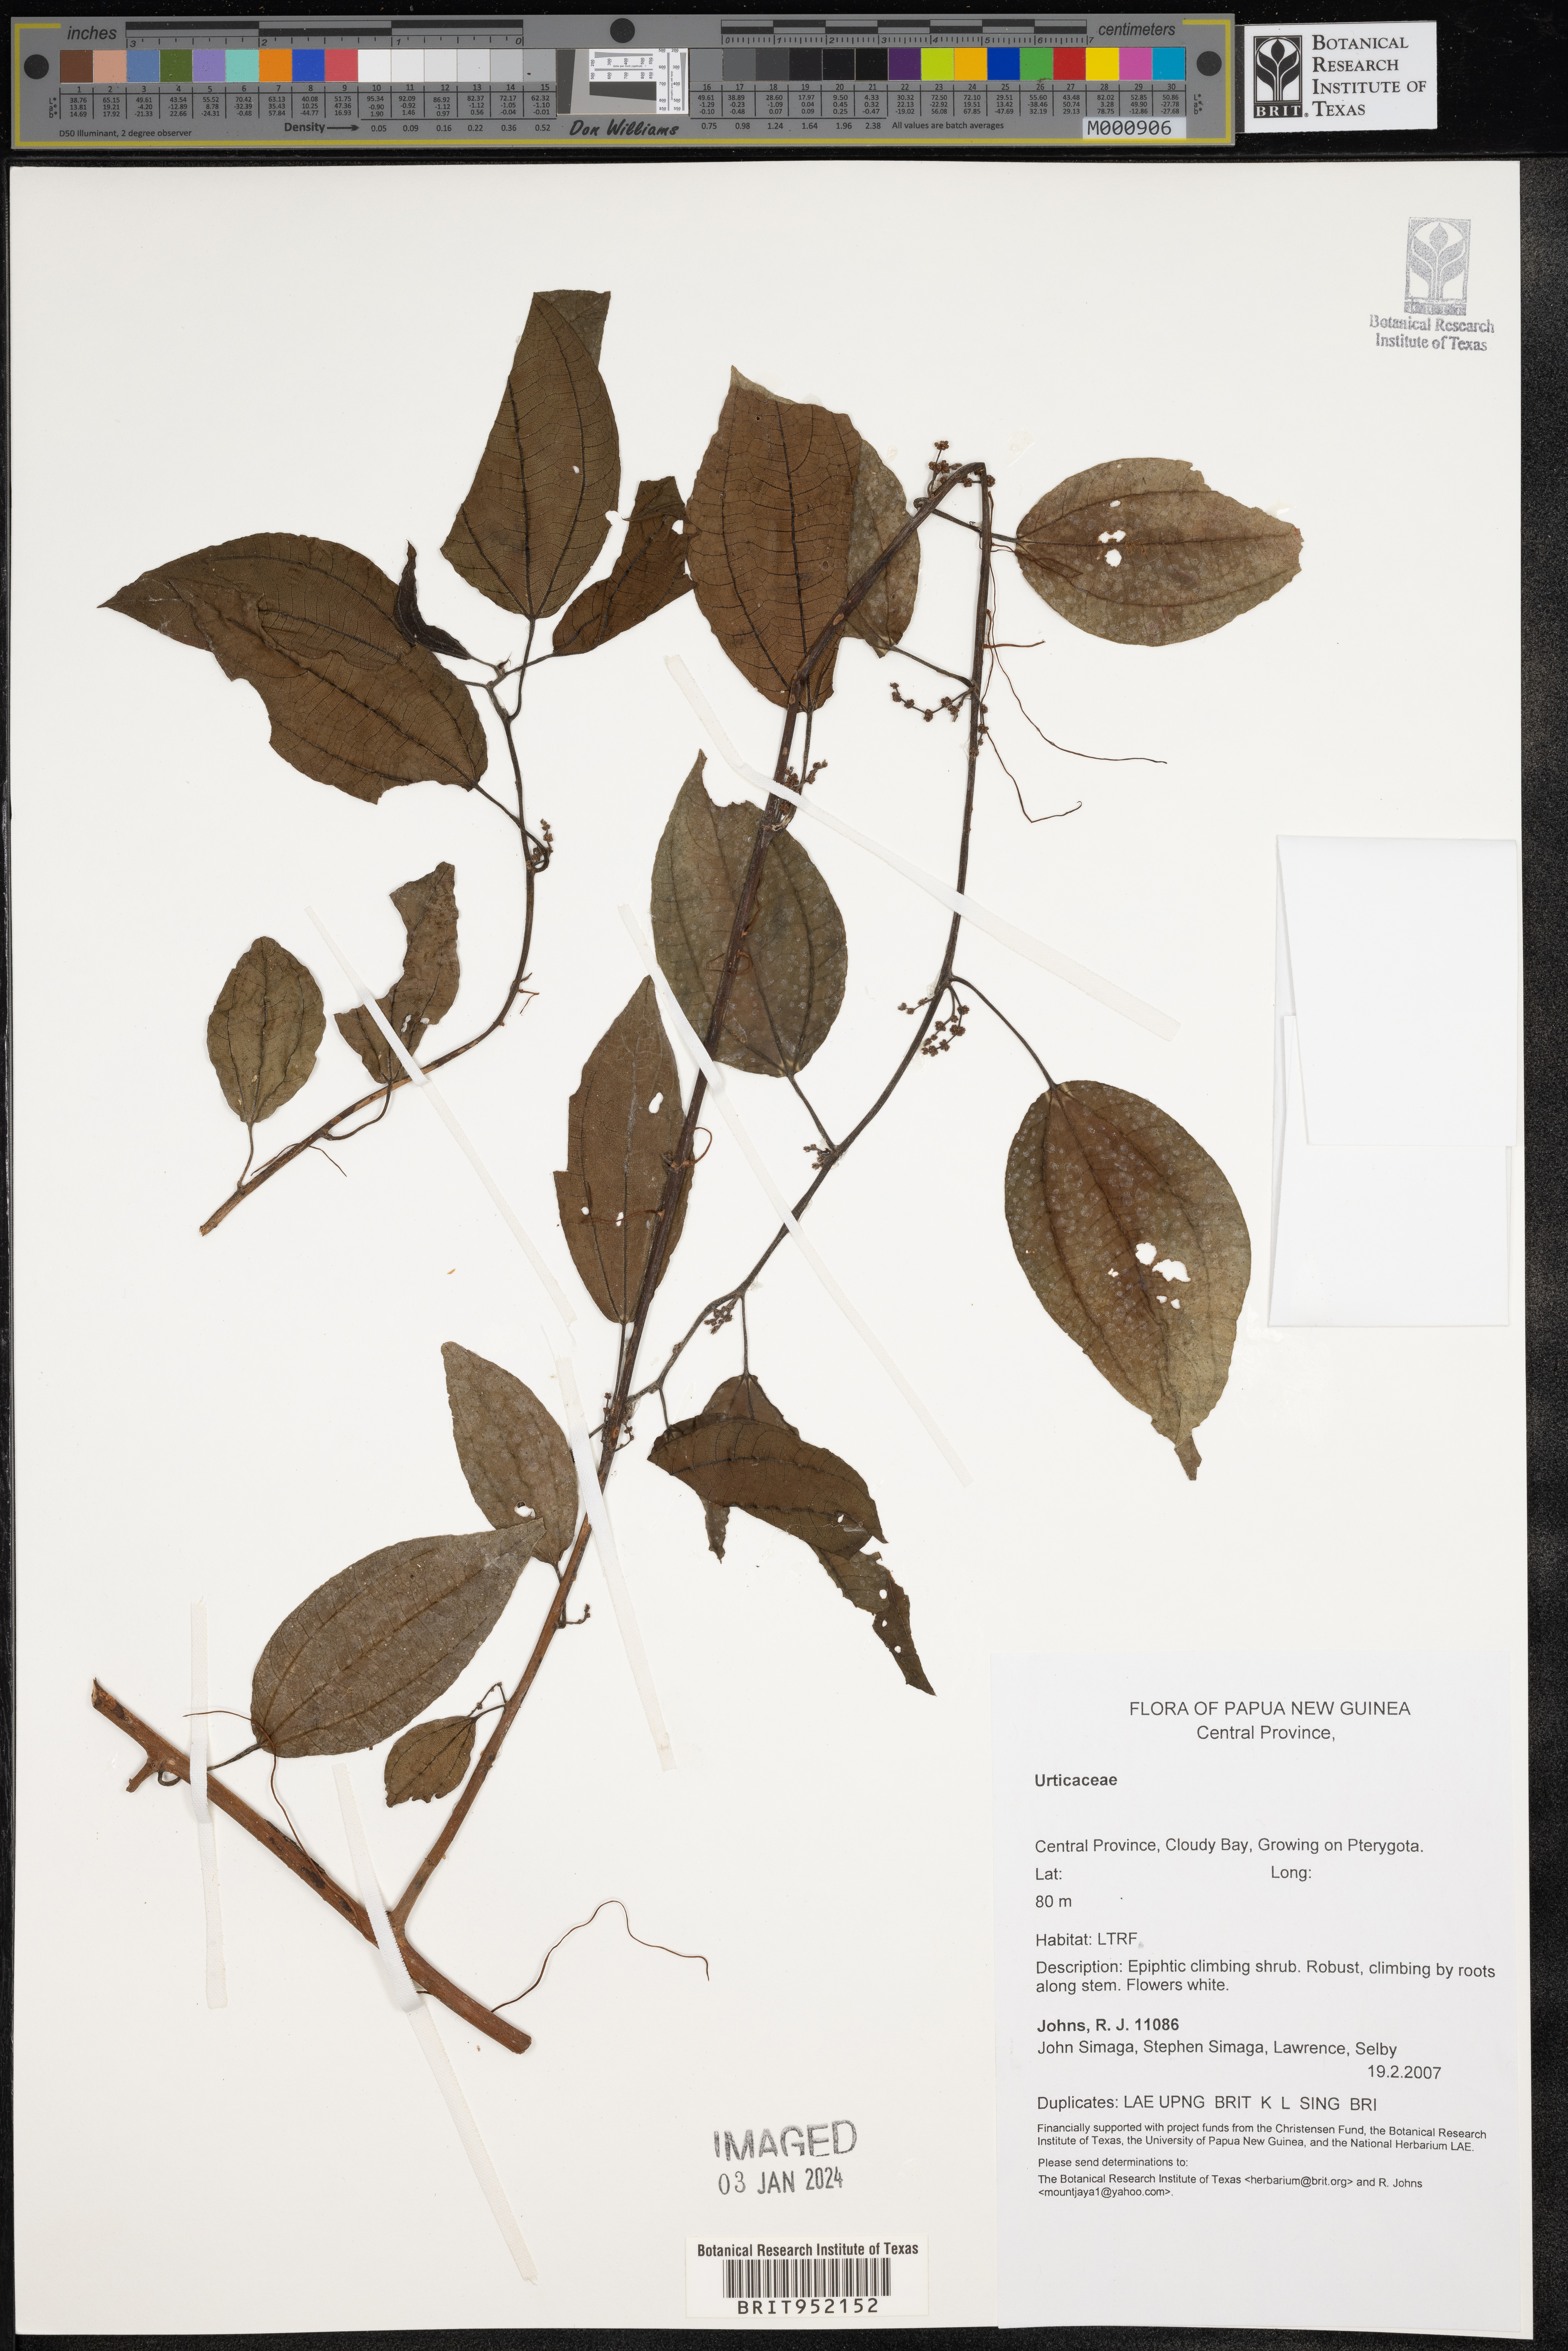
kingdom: Plantae
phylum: Tracheophyta
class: Magnoliopsida
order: Rosales
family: Urticaceae
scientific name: Urticaceae
